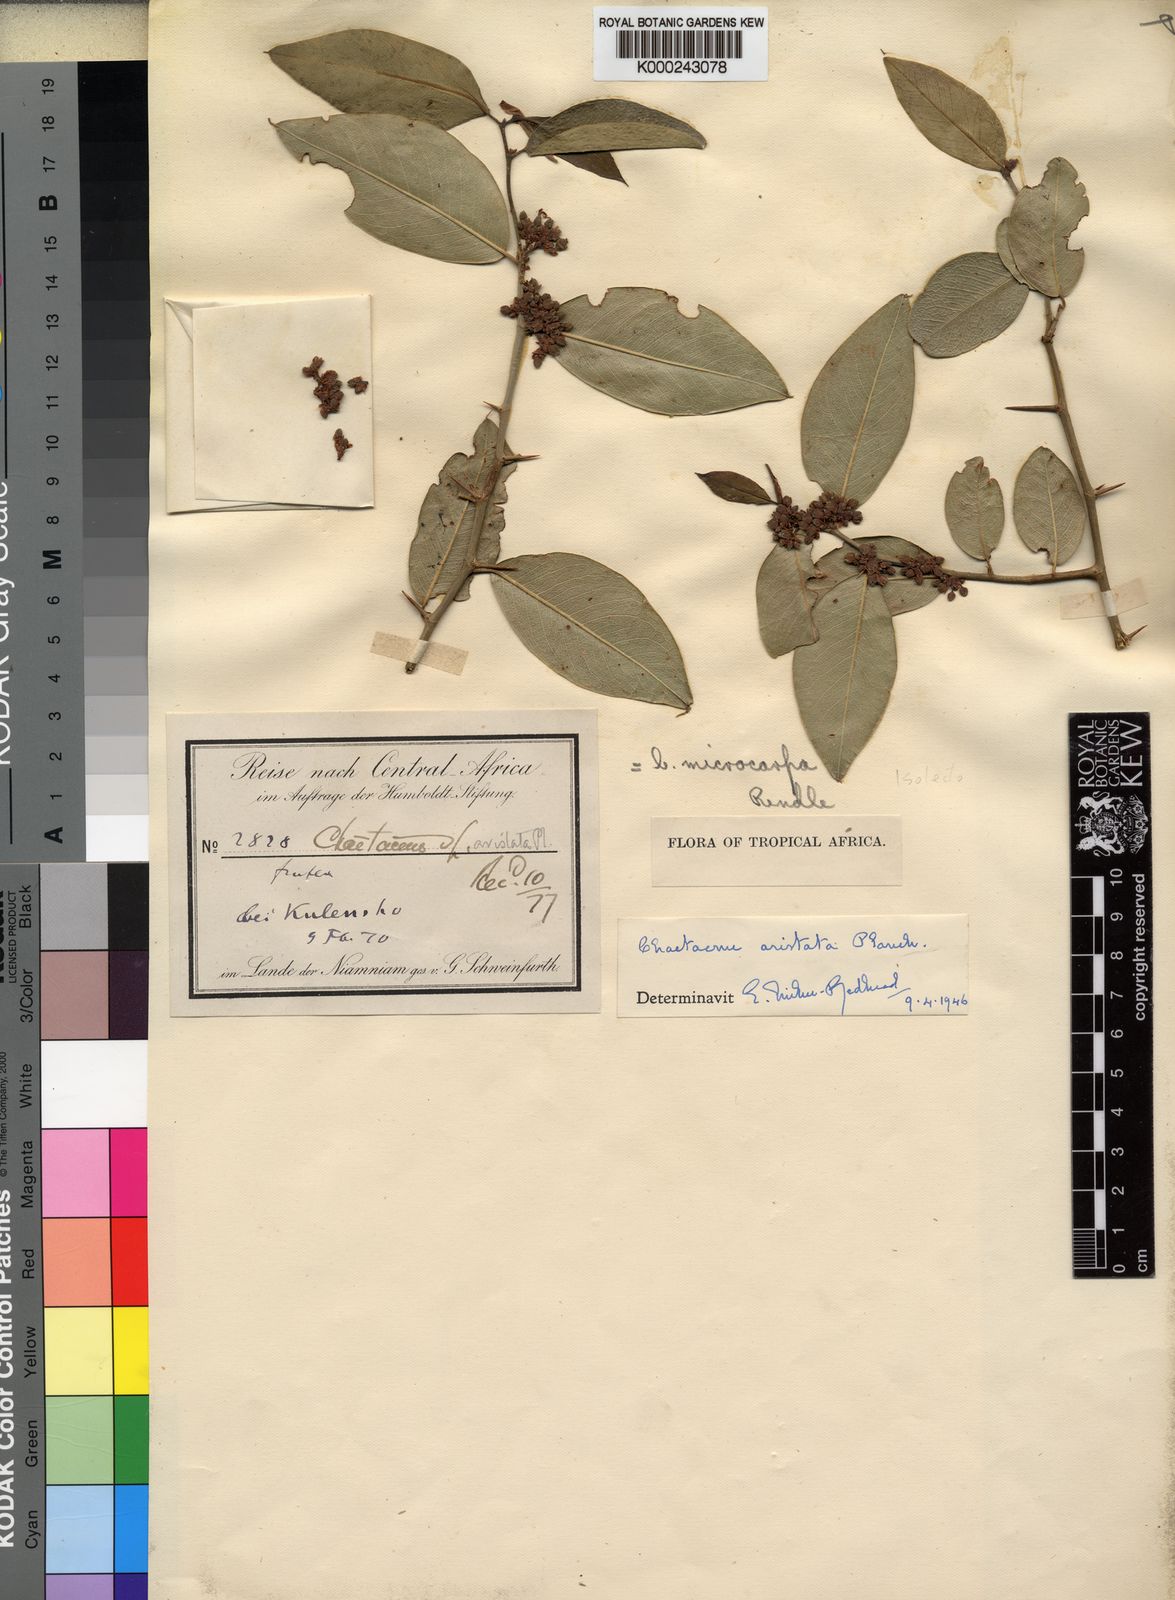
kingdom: Plantae
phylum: Tracheophyta
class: Magnoliopsida
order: Rosales
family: Cannabaceae
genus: Chaetachme
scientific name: Chaetachme aristata
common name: Thorny elm
